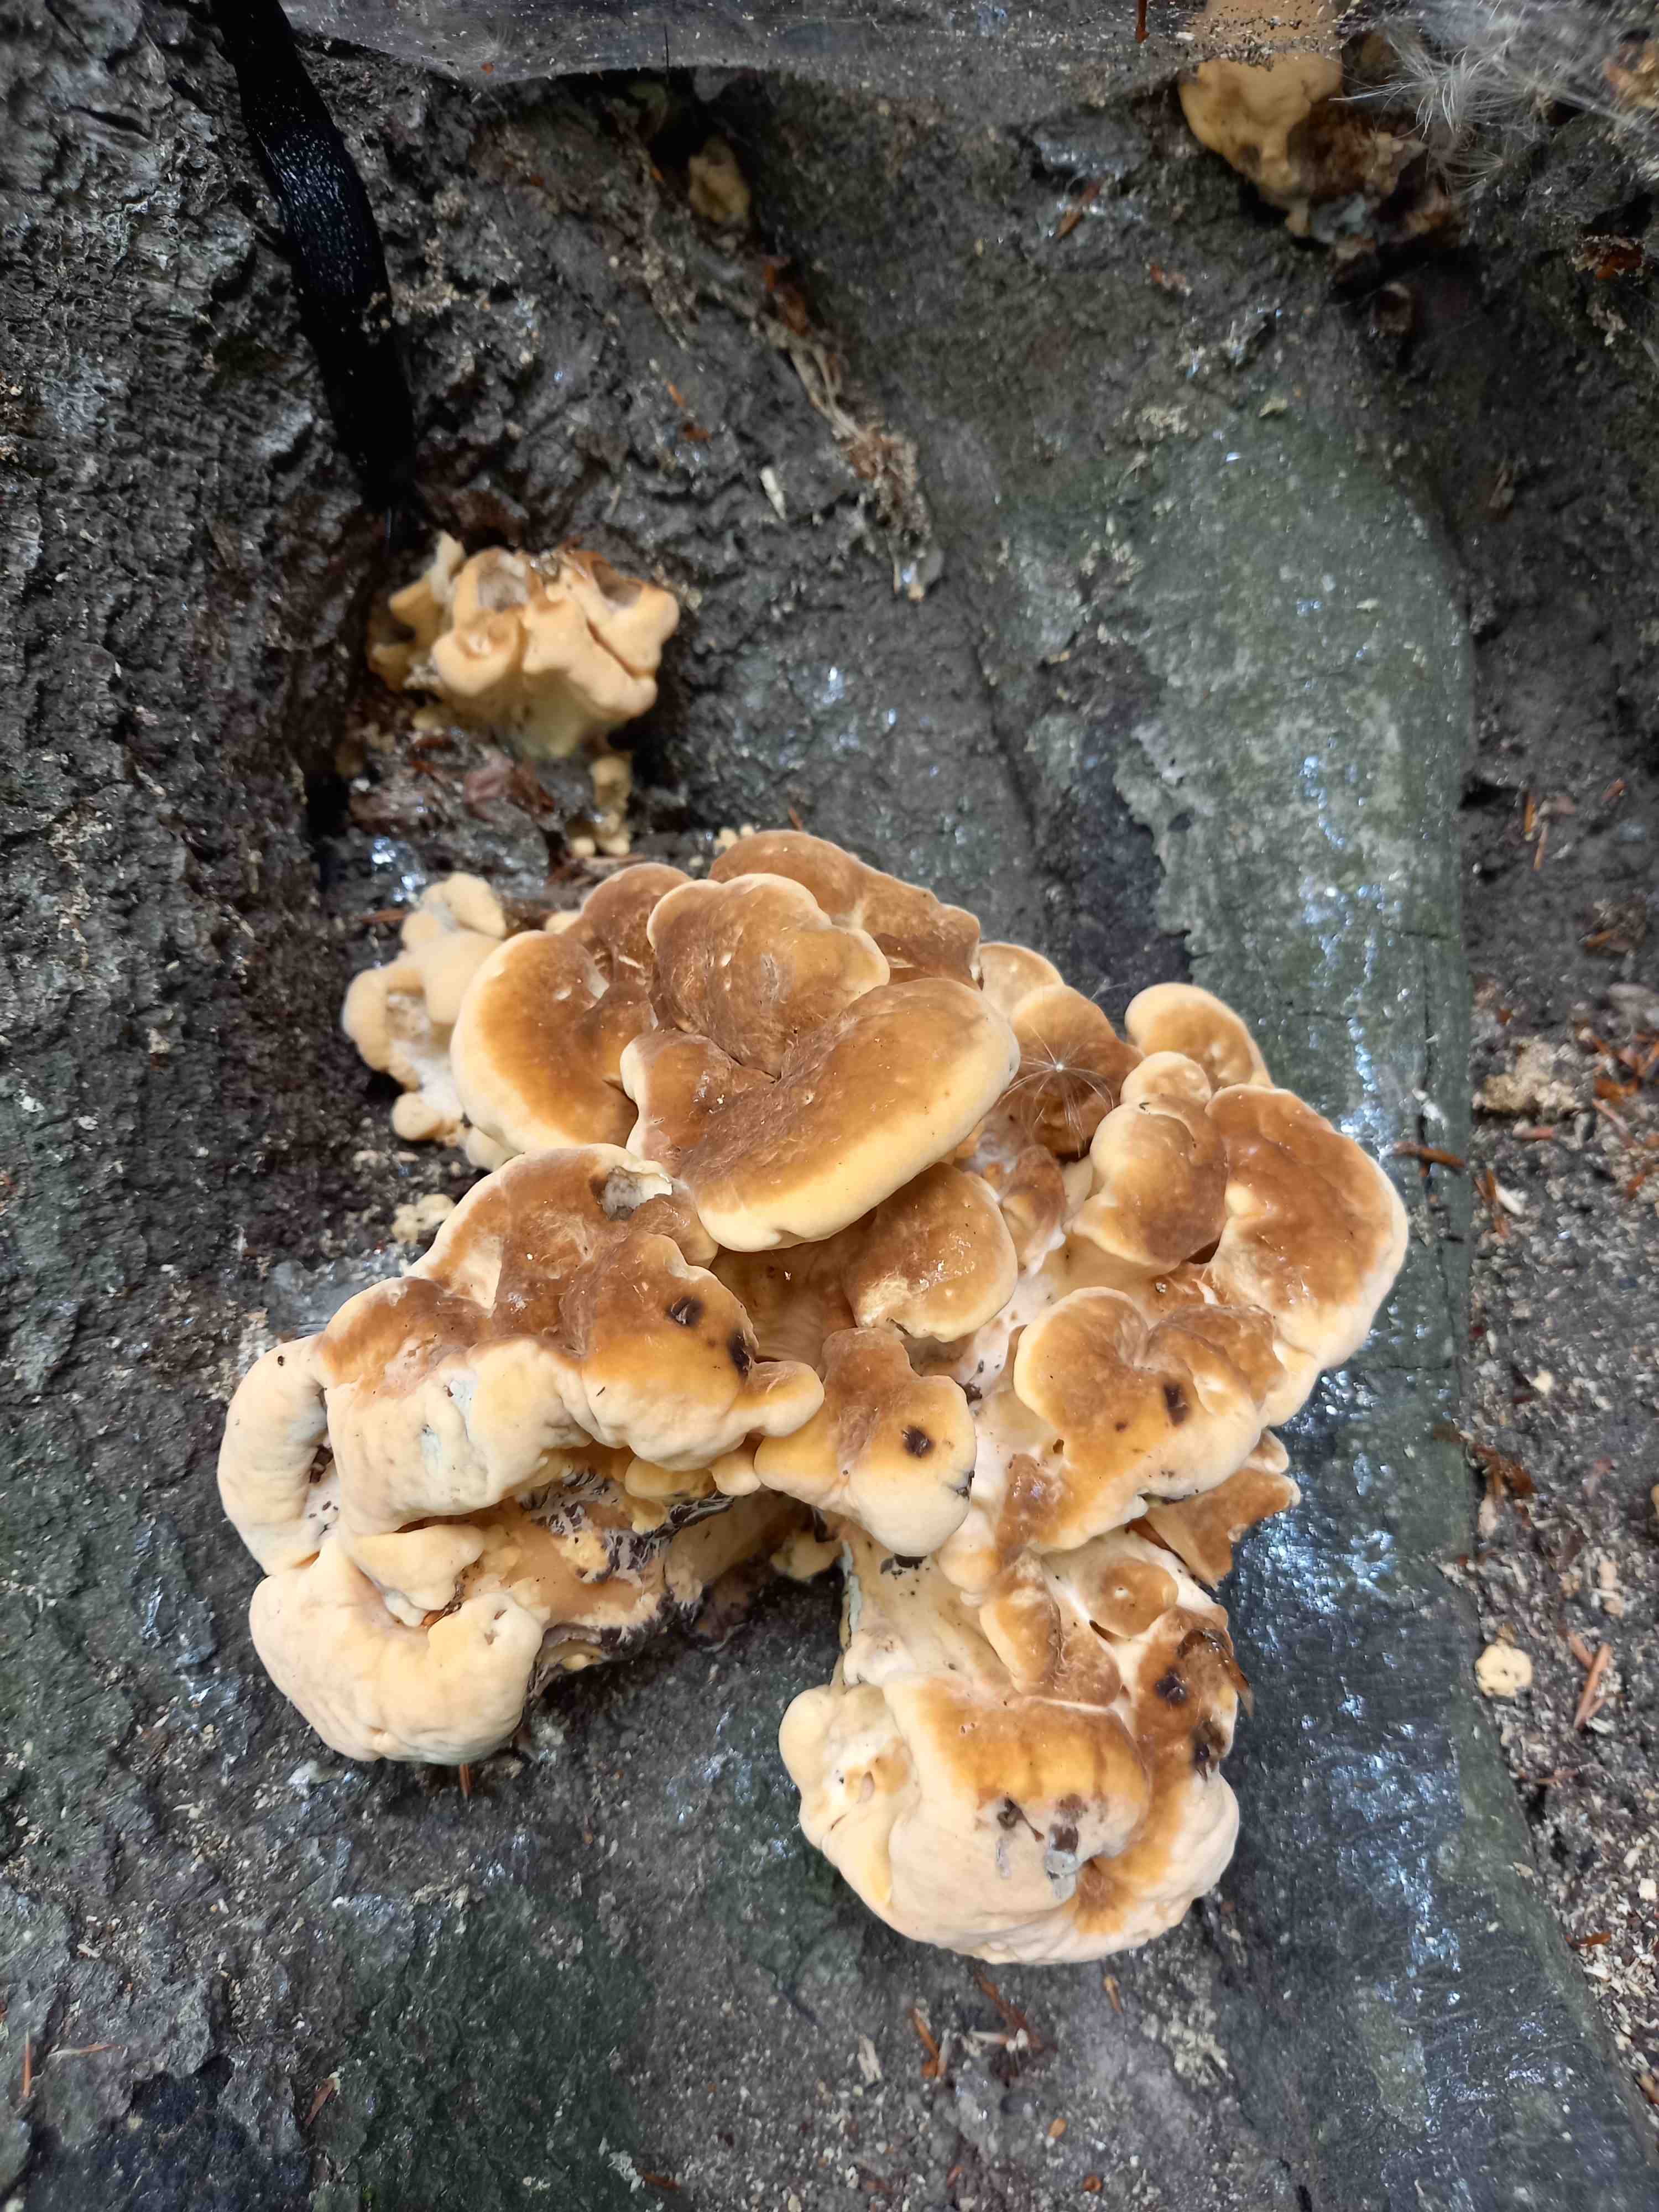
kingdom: Fungi
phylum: Basidiomycota
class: Agaricomycetes
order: Polyporales
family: Meripilaceae
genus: Meripilus
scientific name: Meripilus giganteus
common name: kæmpeporesvamp
